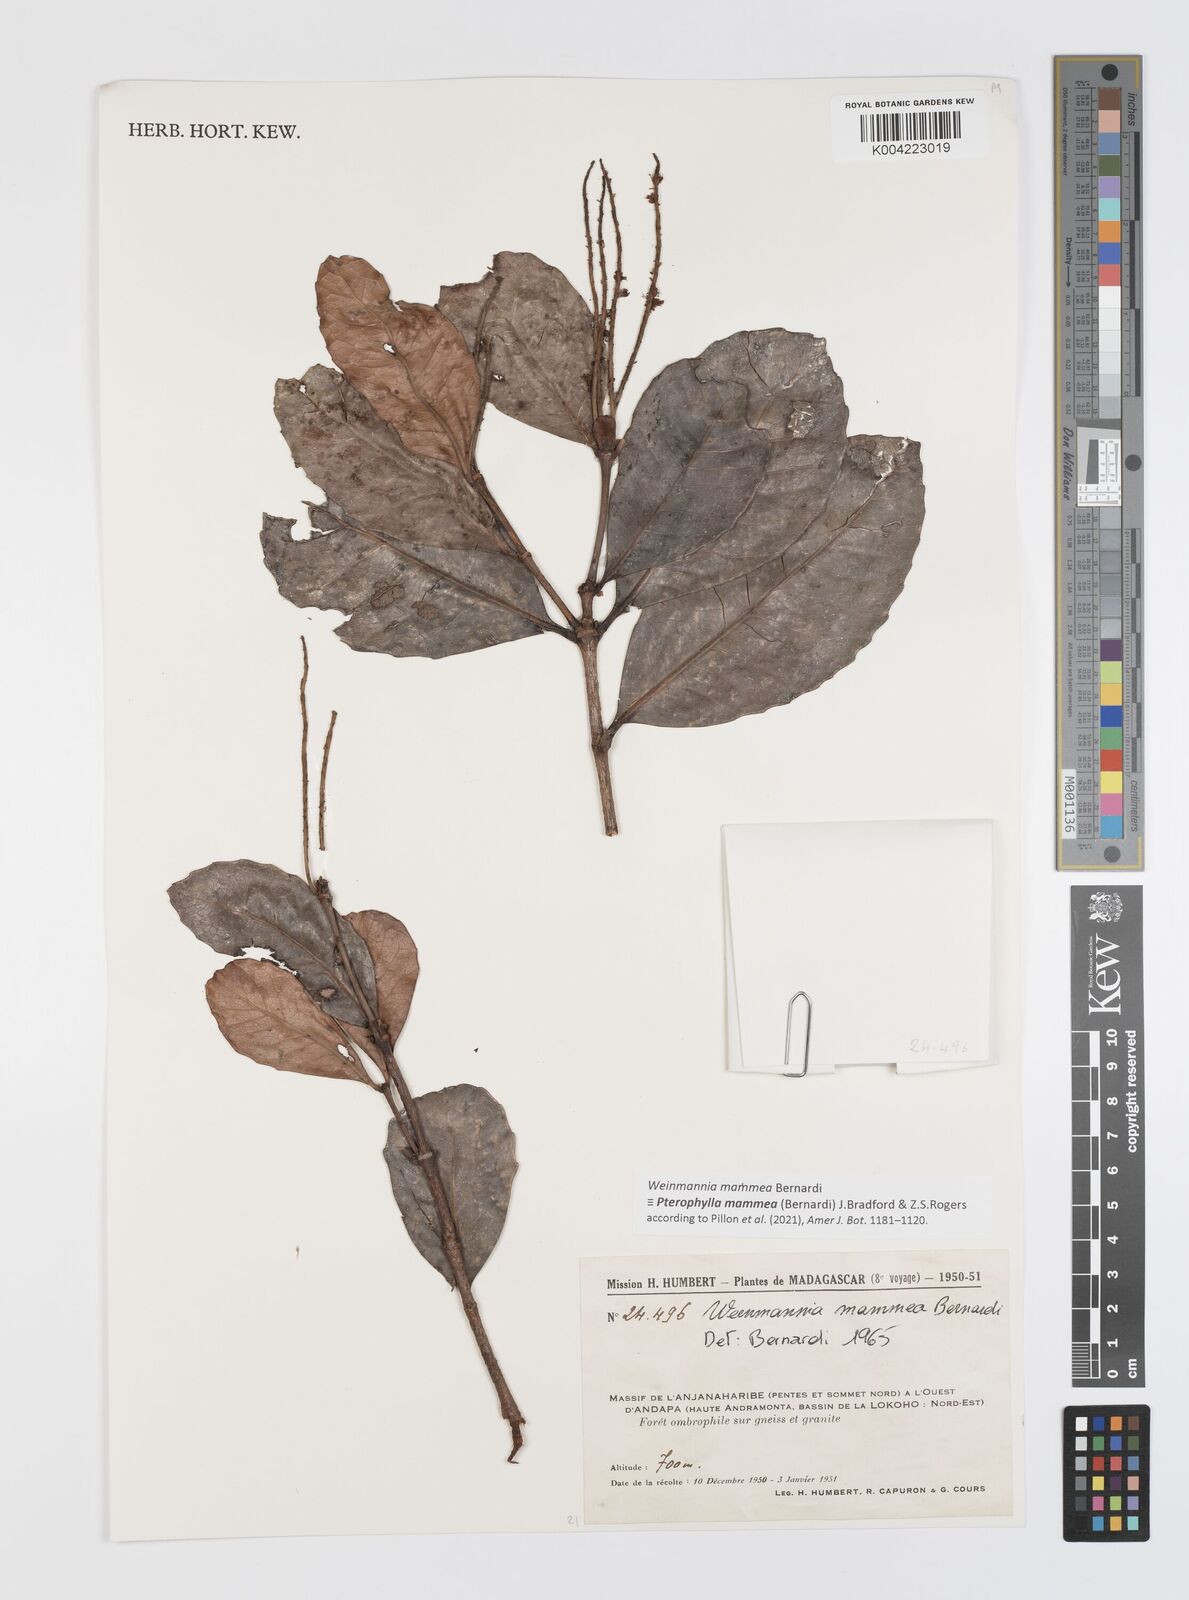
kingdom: Plantae
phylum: Tracheophyta
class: Magnoliopsida
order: Oxalidales
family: Cunoniaceae
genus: Pterophylla
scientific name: Pterophylla mammea
